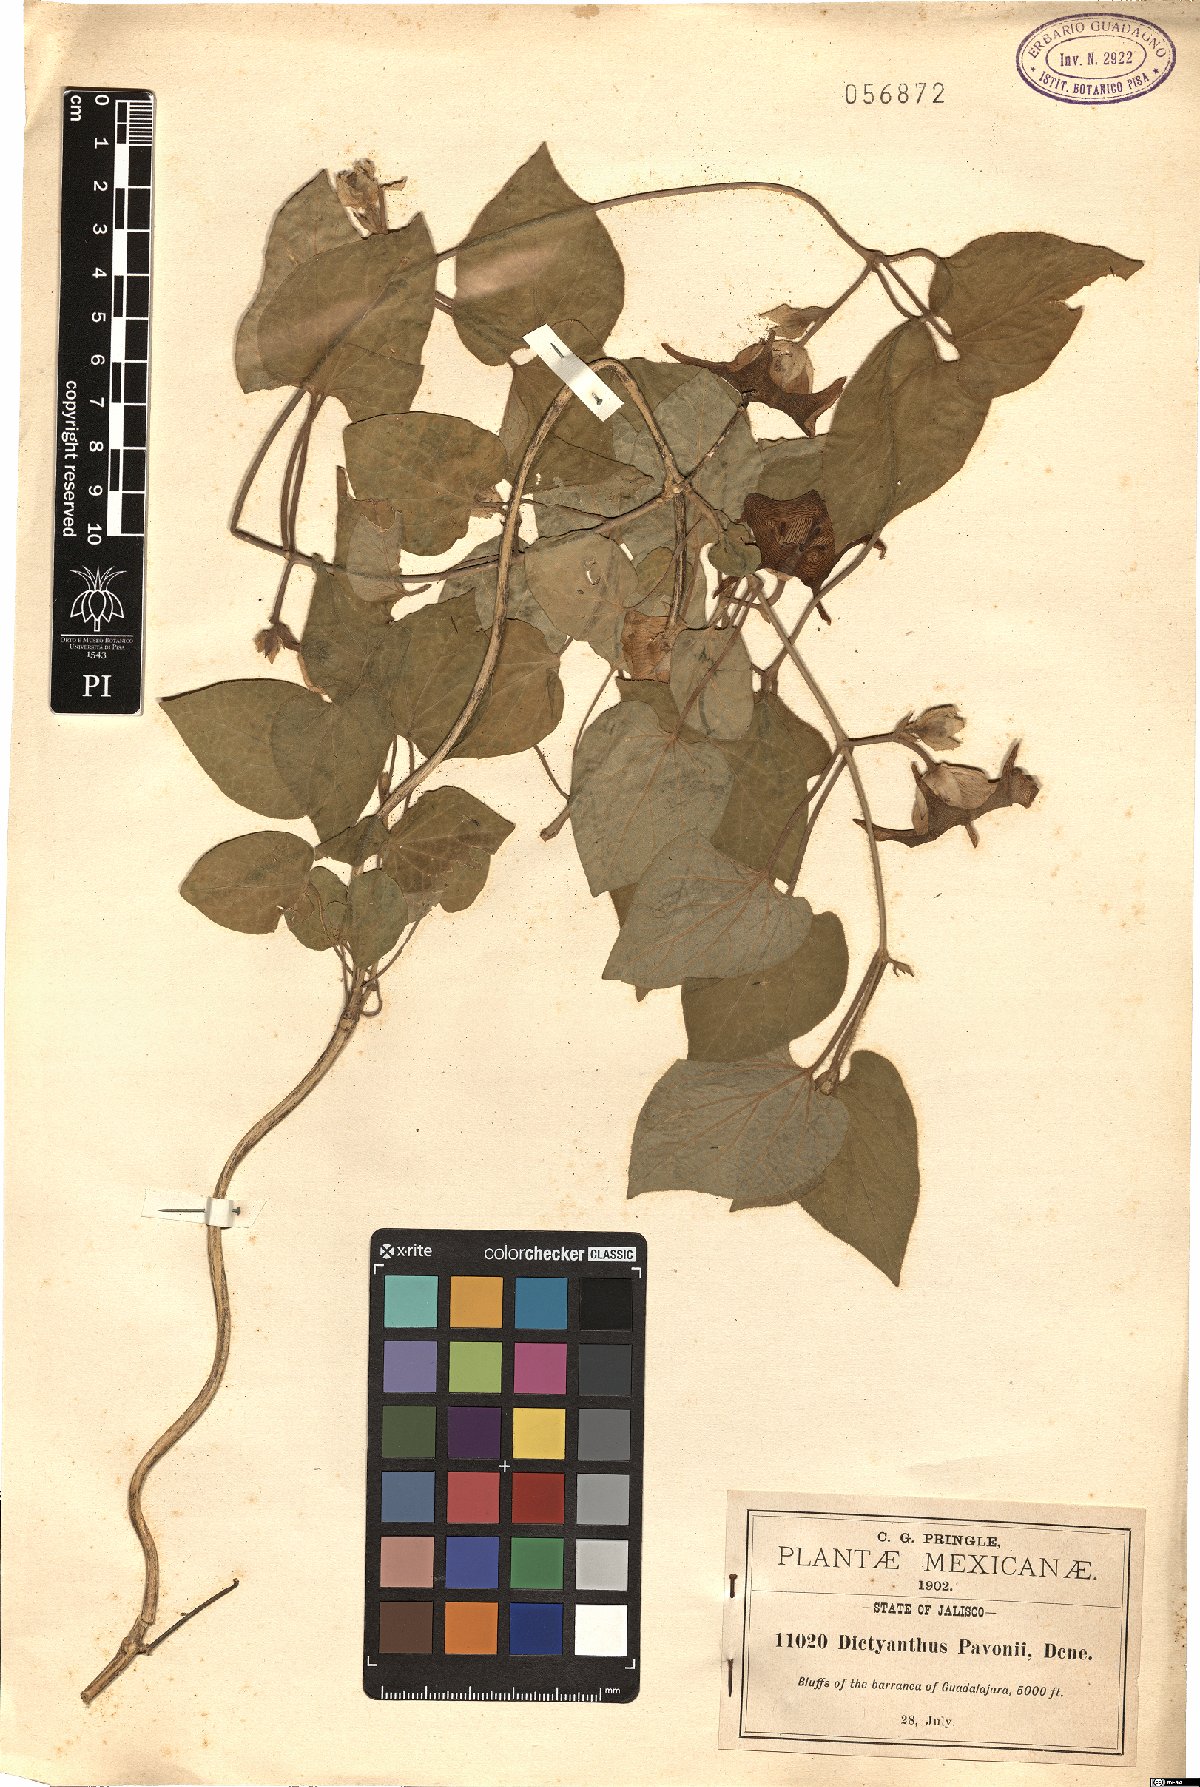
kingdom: Plantae
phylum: Tracheophyta
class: Magnoliopsida
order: Gentianales
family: Apocynaceae
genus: Dictyanthus
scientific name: Dictyanthus pavonii
